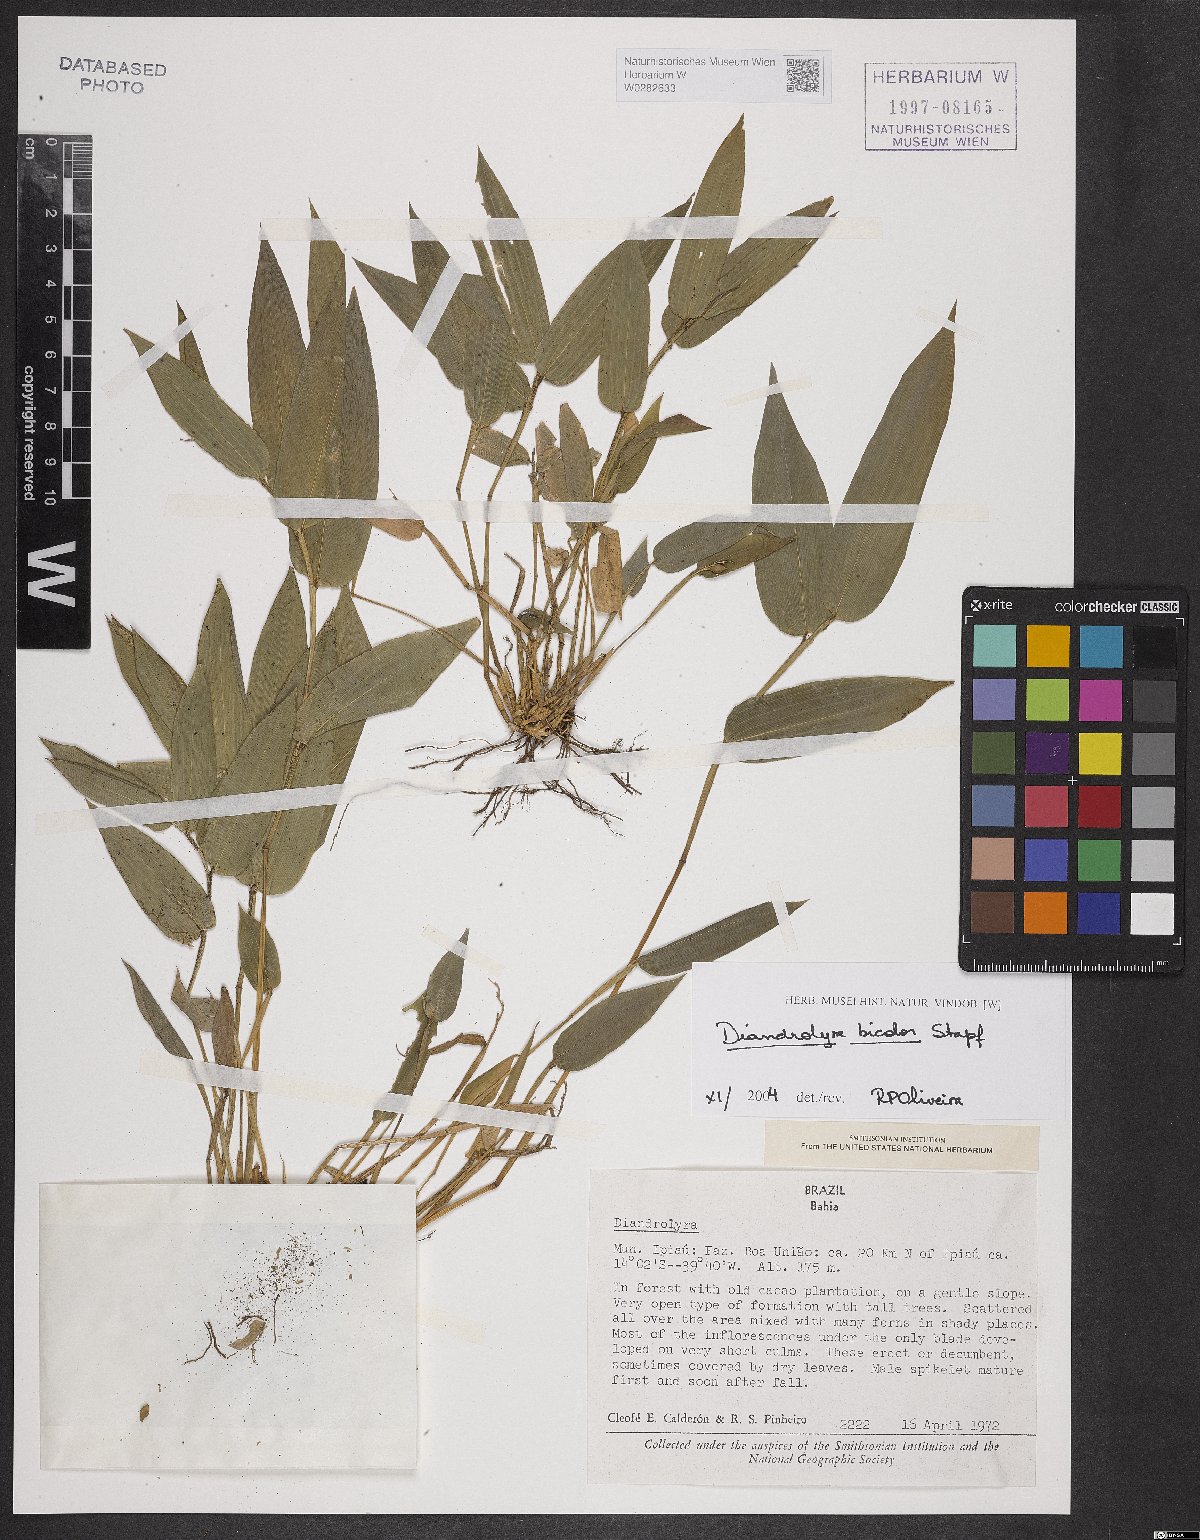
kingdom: Plantae
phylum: Tracheophyta
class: Liliopsida
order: Poales
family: Poaceae
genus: Diandrolyra
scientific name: Diandrolyra bicolor
